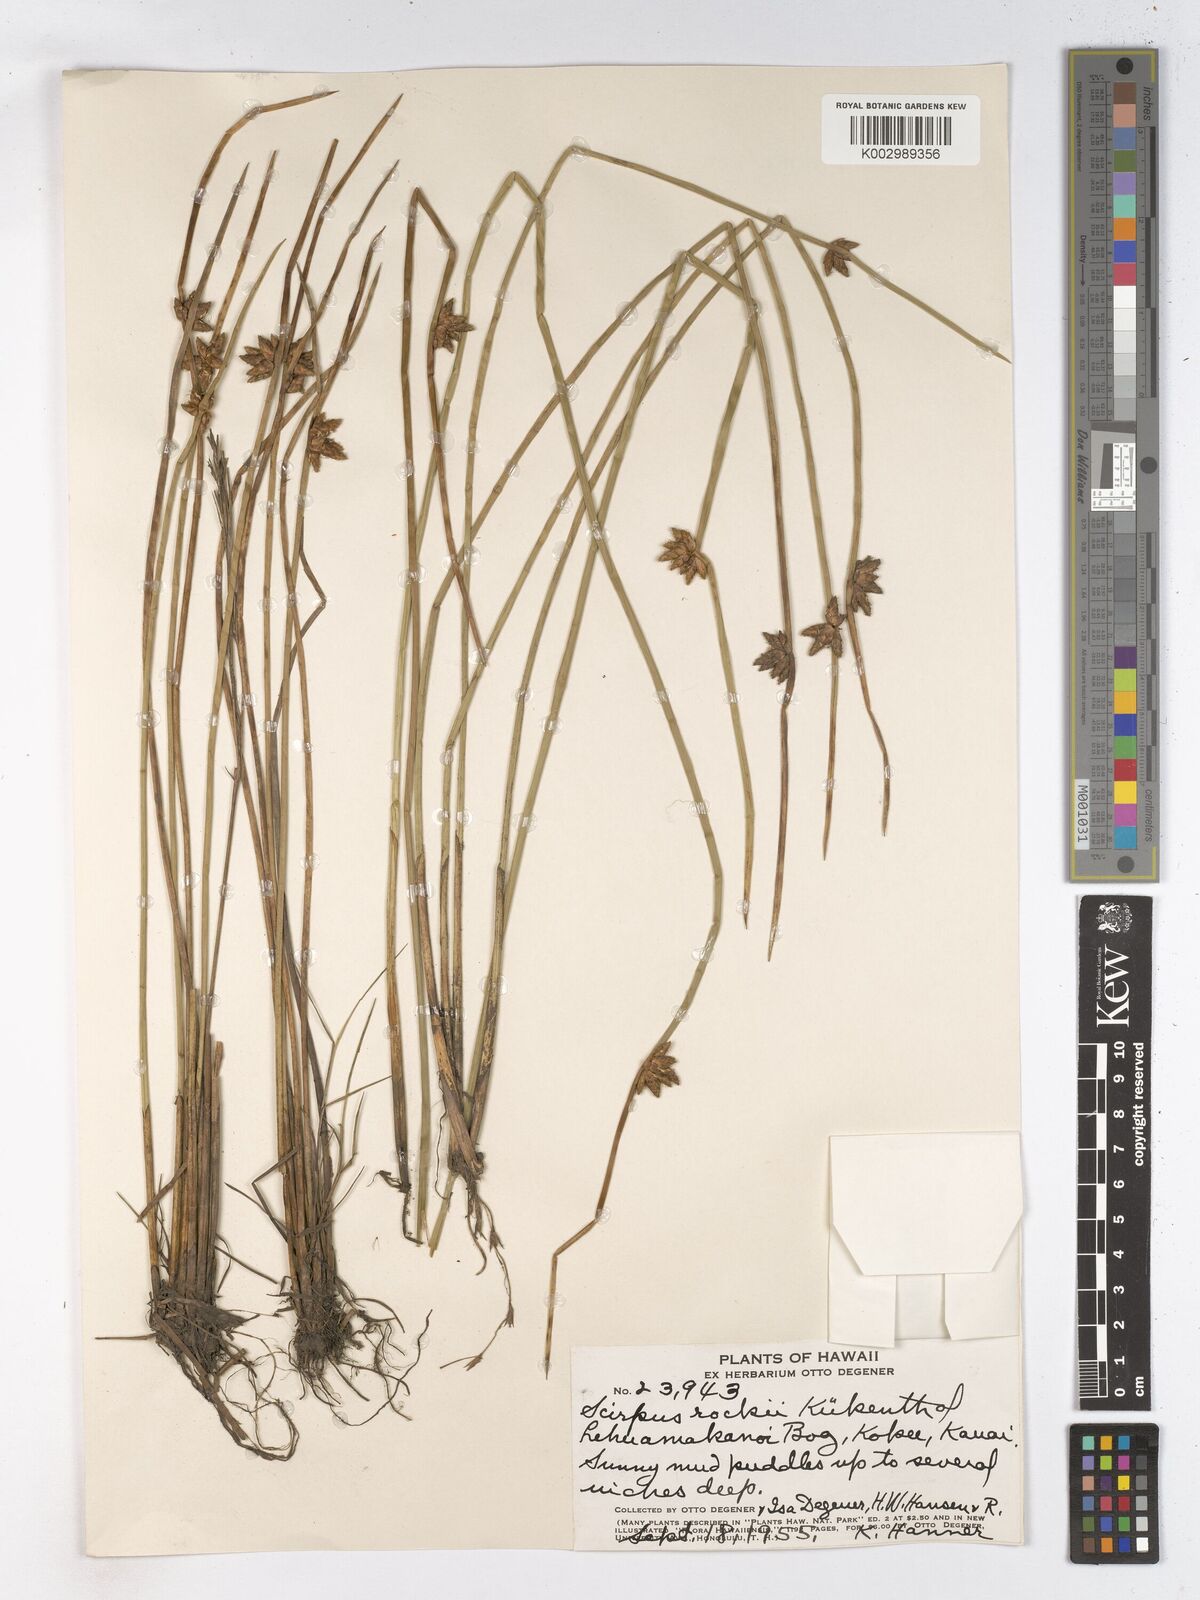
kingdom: Plantae
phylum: Tracheophyta
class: Liliopsida
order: Poales
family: Cyperaceae
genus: Schoenoplectiella
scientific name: Schoenoplectiella juncoides
